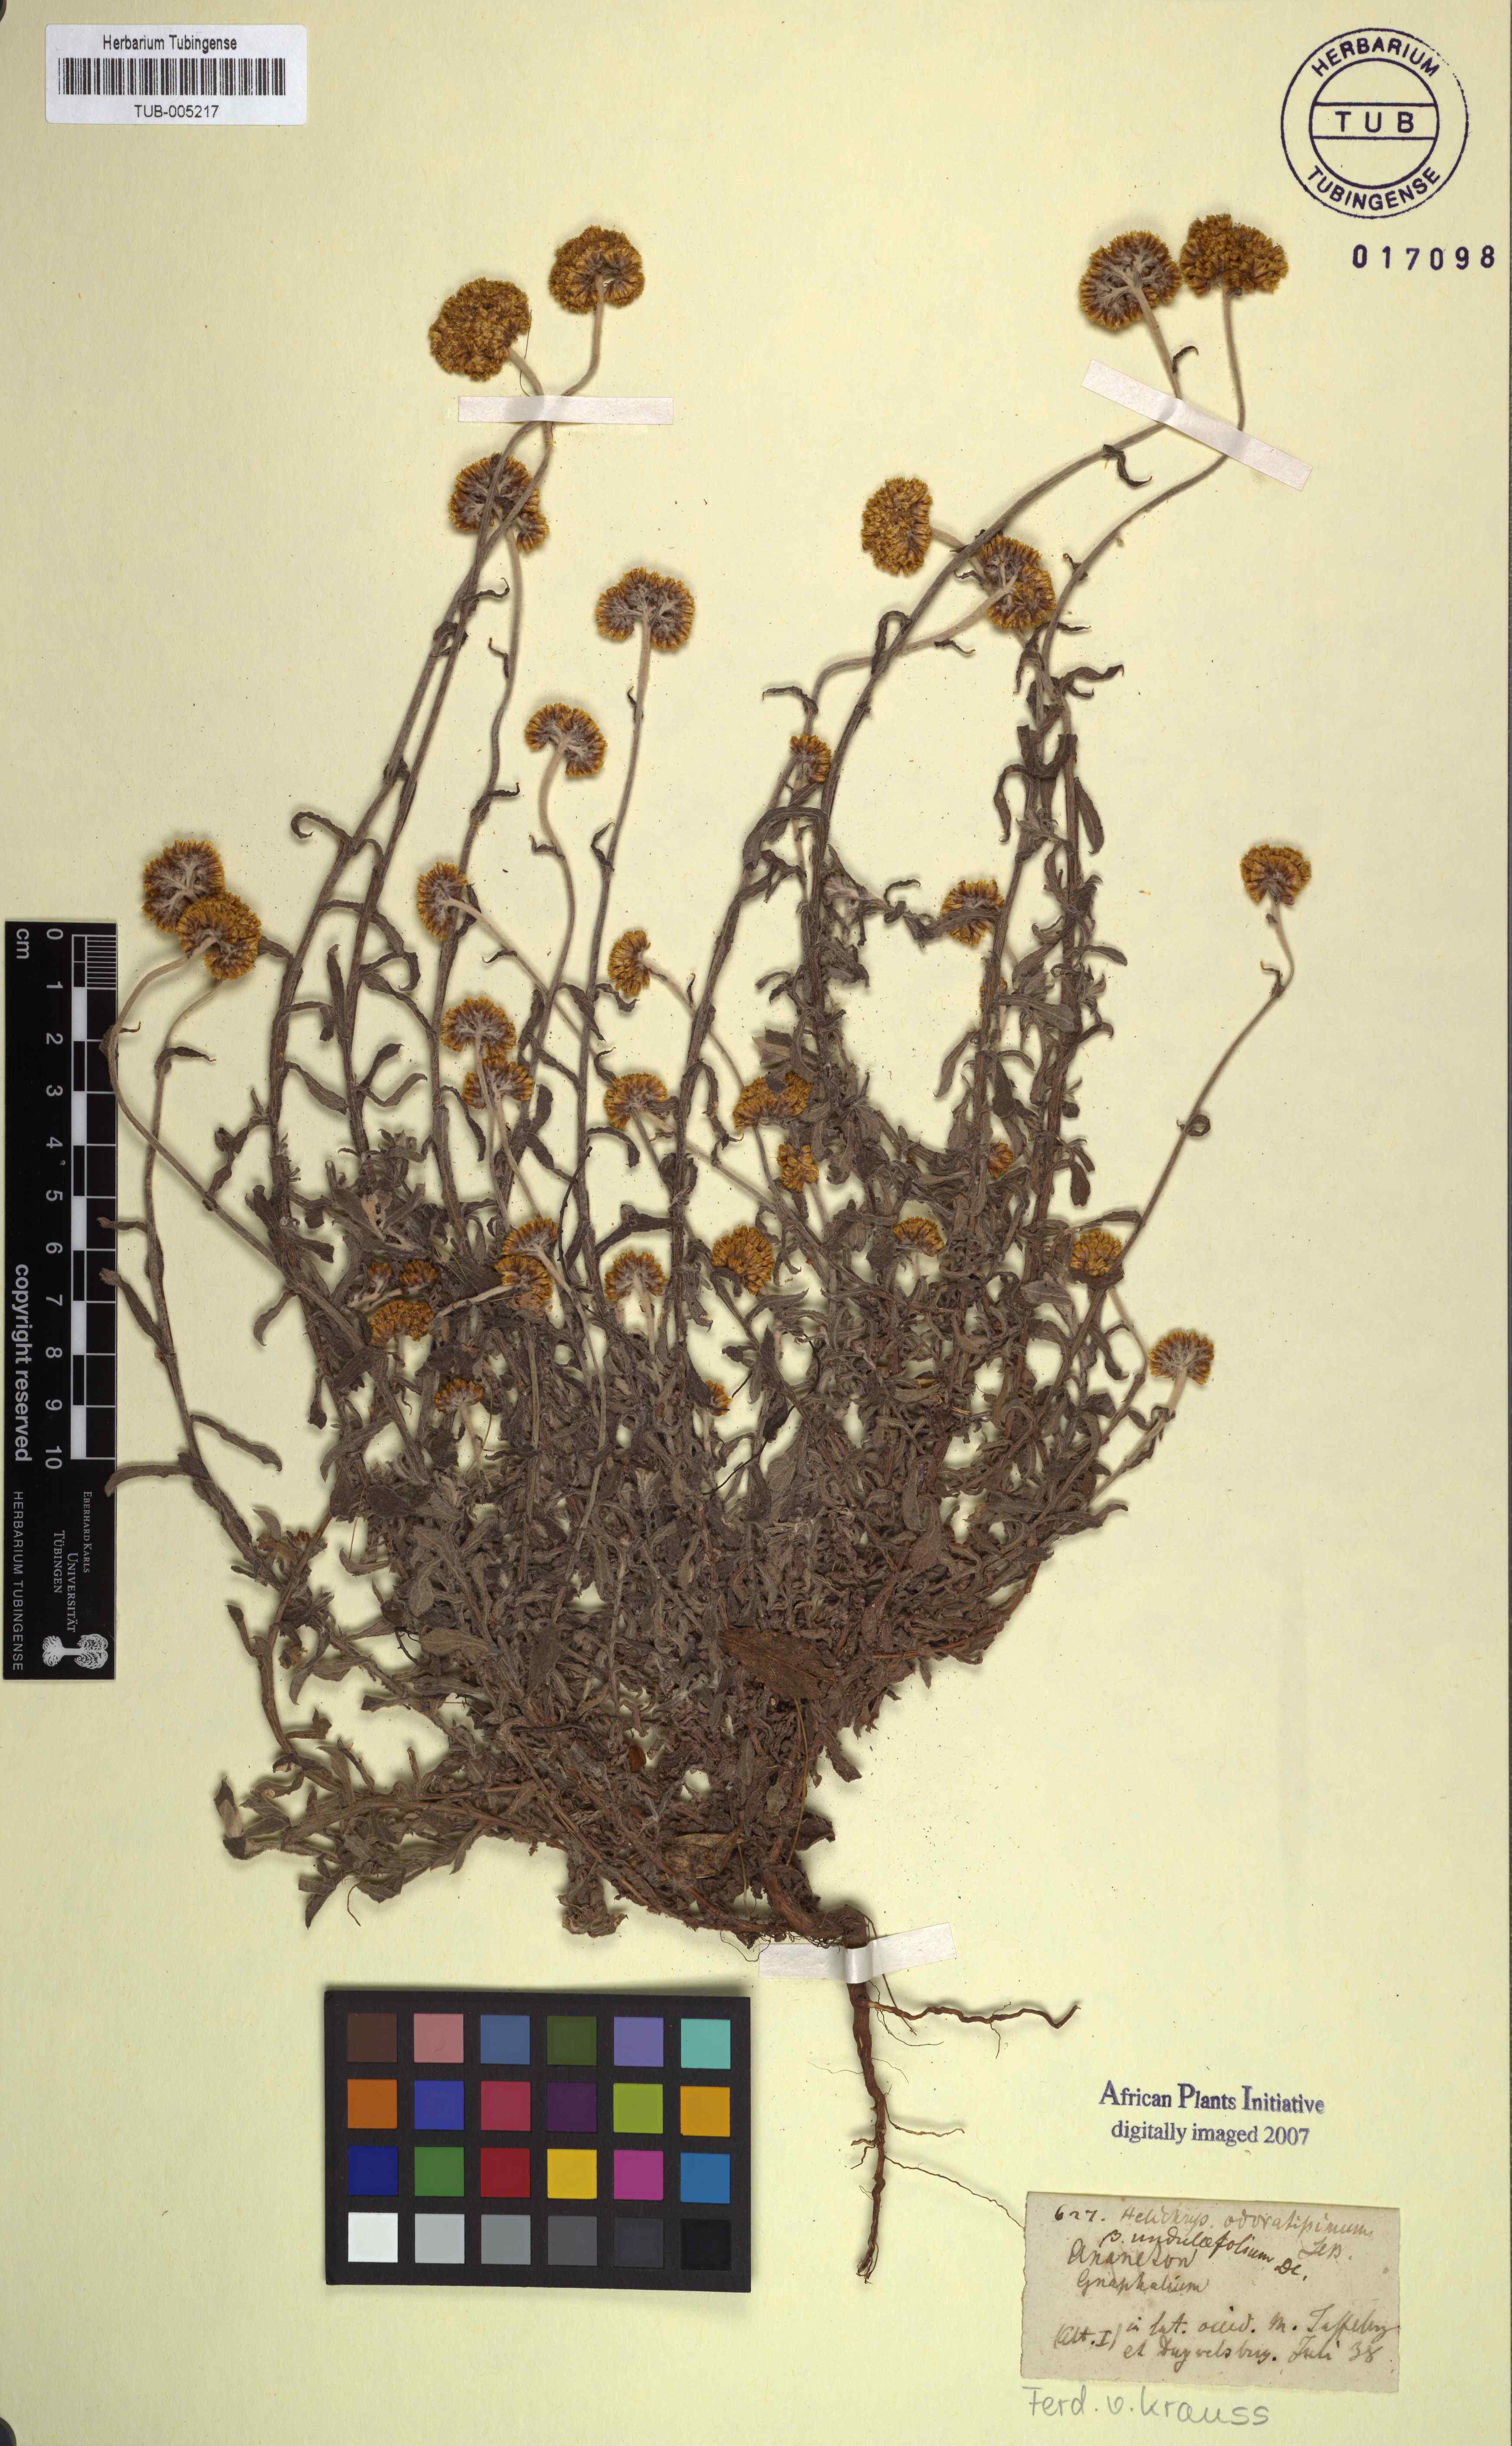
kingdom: Plantae
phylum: Tracheophyta
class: Magnoliopsida
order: Asterales
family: Asteraceae
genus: Helichrysum
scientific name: Helichrysum odoratissimum
